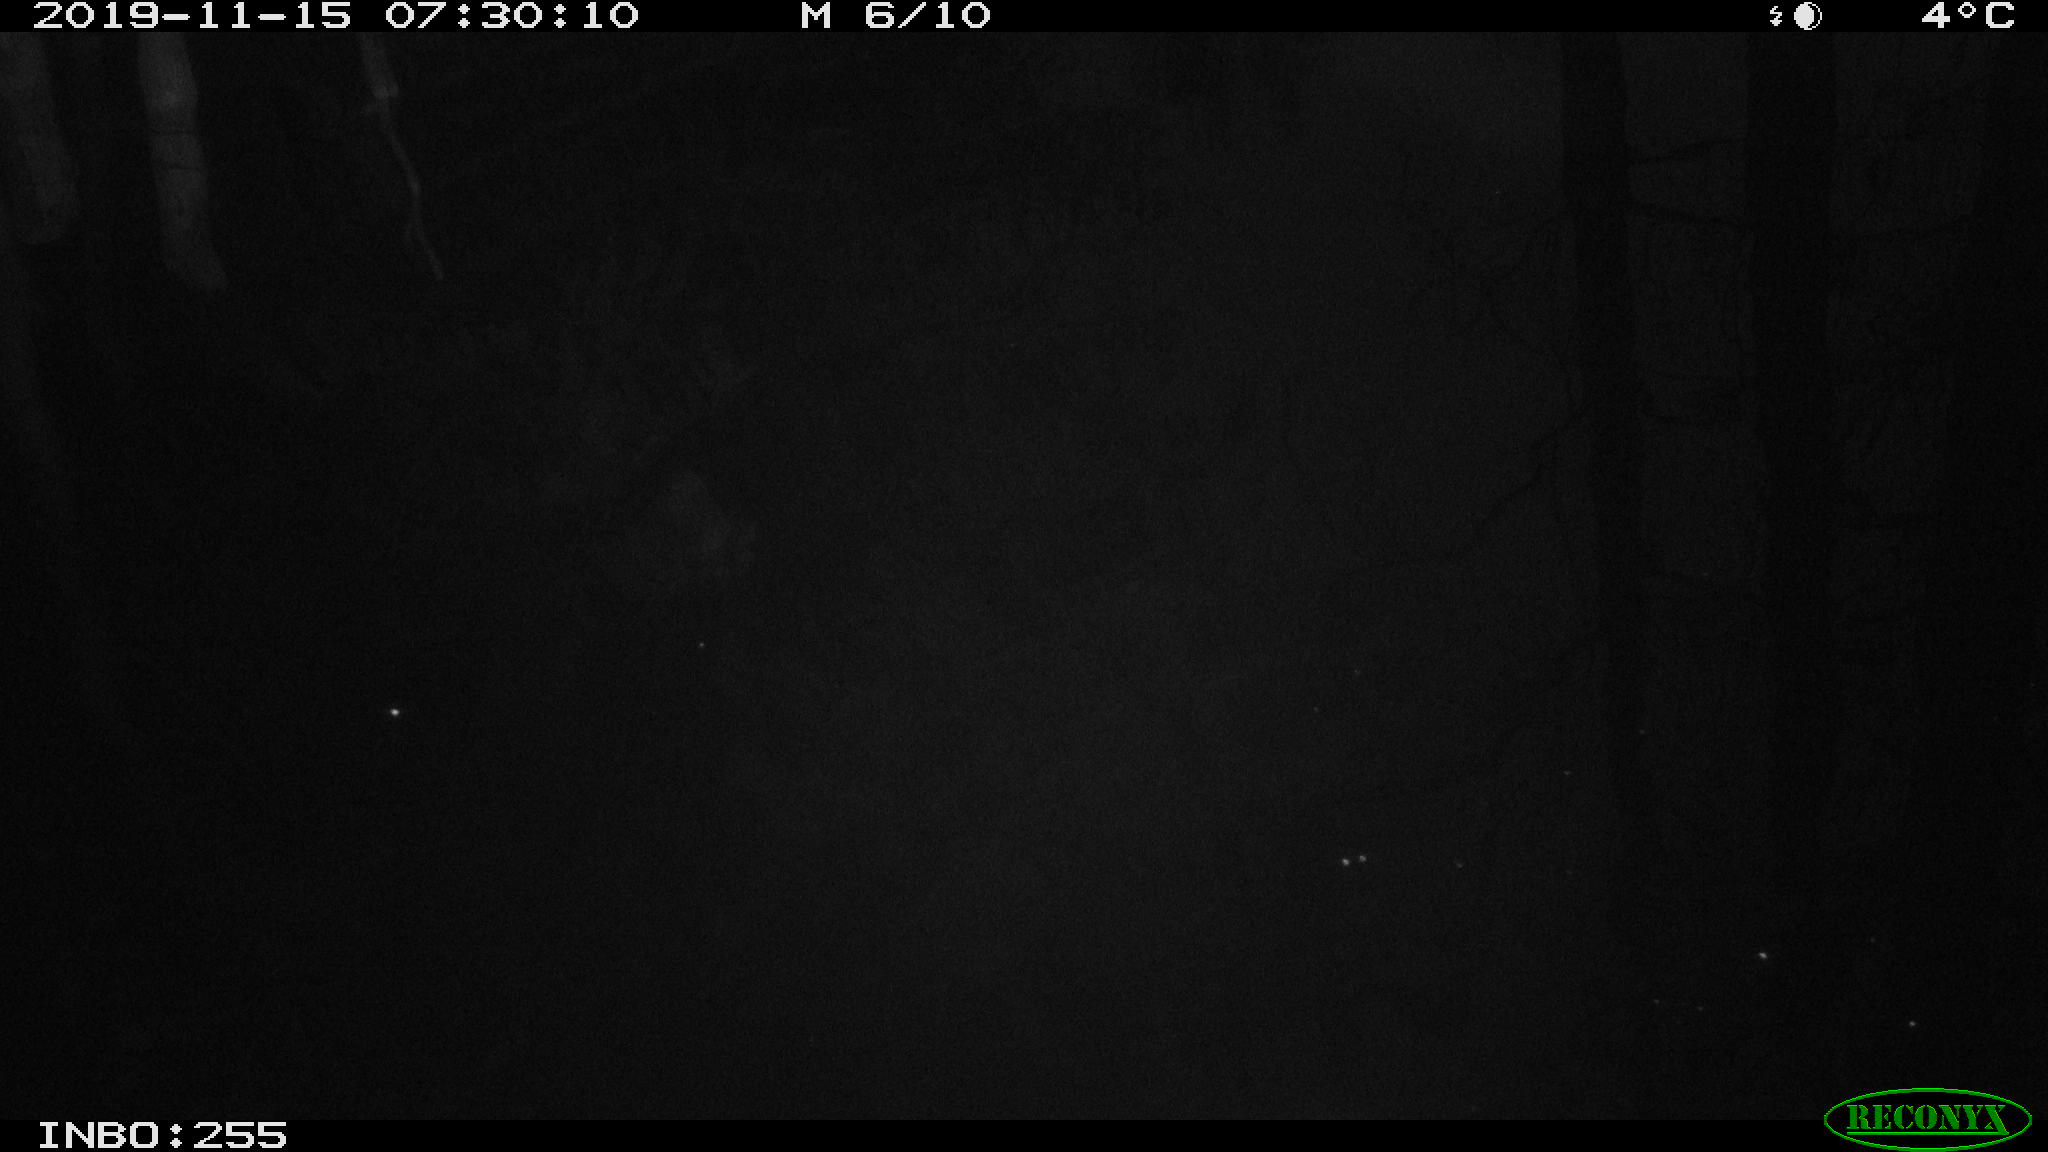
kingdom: Animalia
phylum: Chordata
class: Aves
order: Gruiformes
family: Rallidae
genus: Gallinula
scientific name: Gallinula chloropus
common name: Common moorhen
